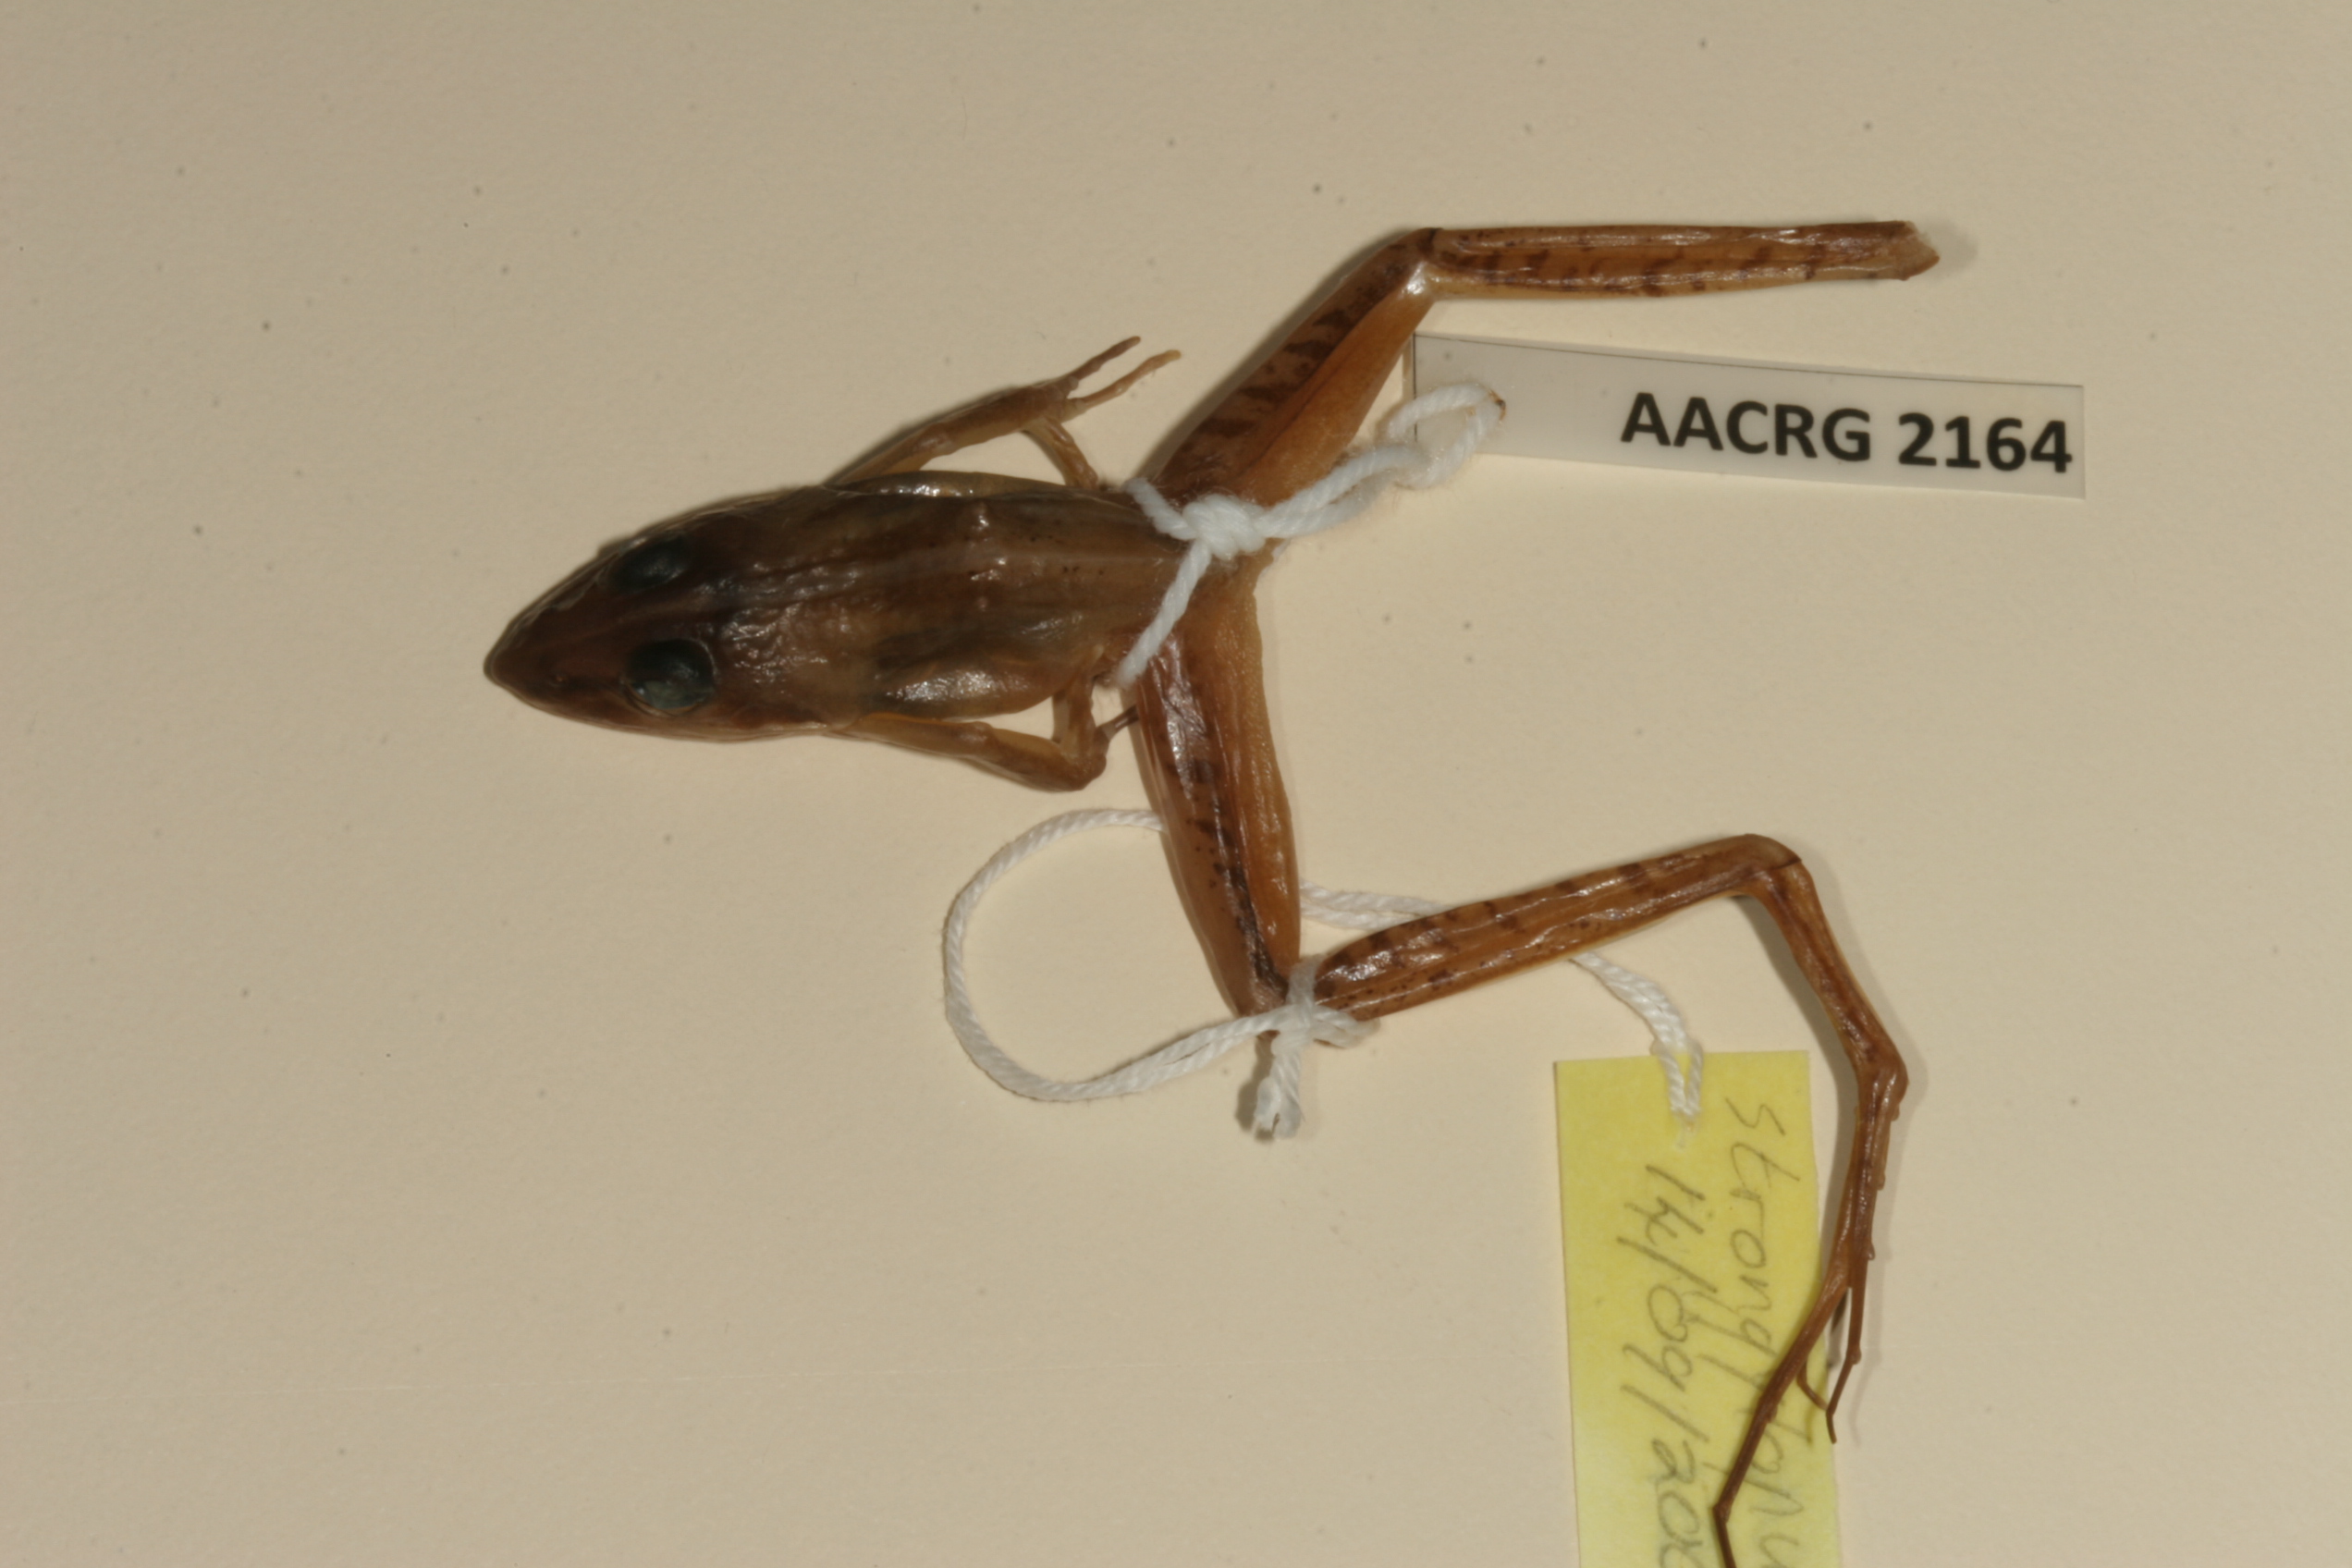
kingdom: Animalia
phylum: Chordata
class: Amphibia
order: Anura
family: Pyxicephalidae
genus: Strongylopus
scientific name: Strongylopus bonaespei
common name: Banded stream frog
